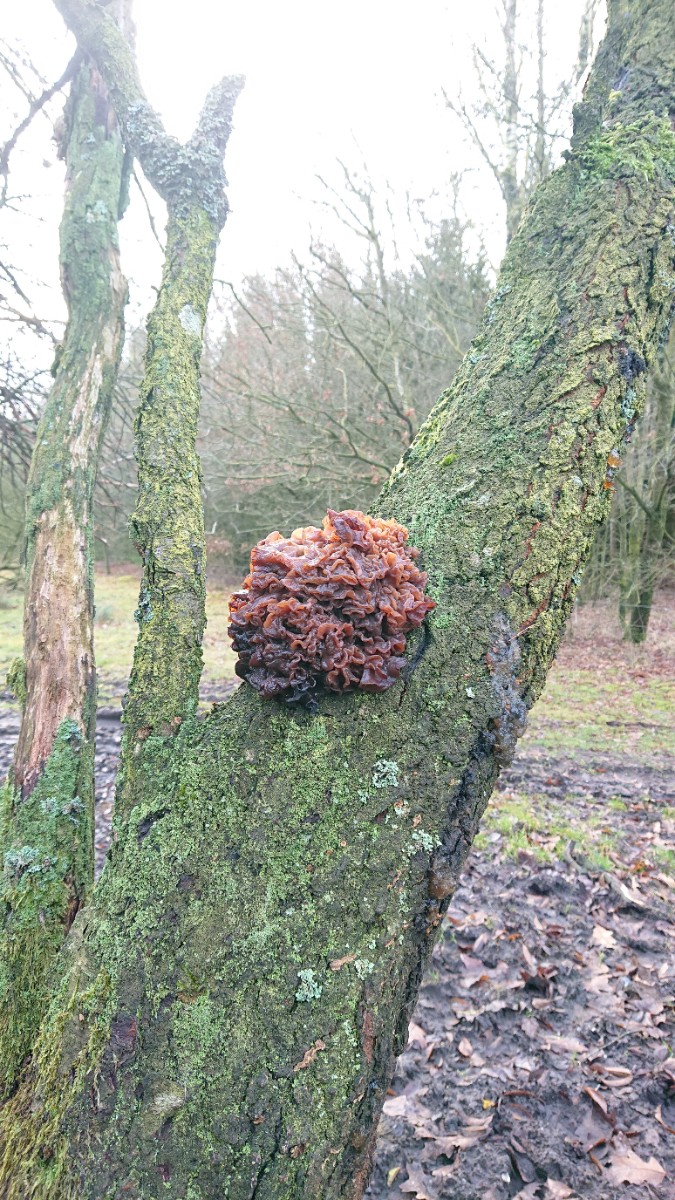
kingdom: Fungi
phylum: Basidiomycota
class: Tremellomycetes
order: Tremellales
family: Tremellaceae
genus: Phaeotremella
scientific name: Phaeotremella frondosa
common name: kæmpe-bævresvamp
